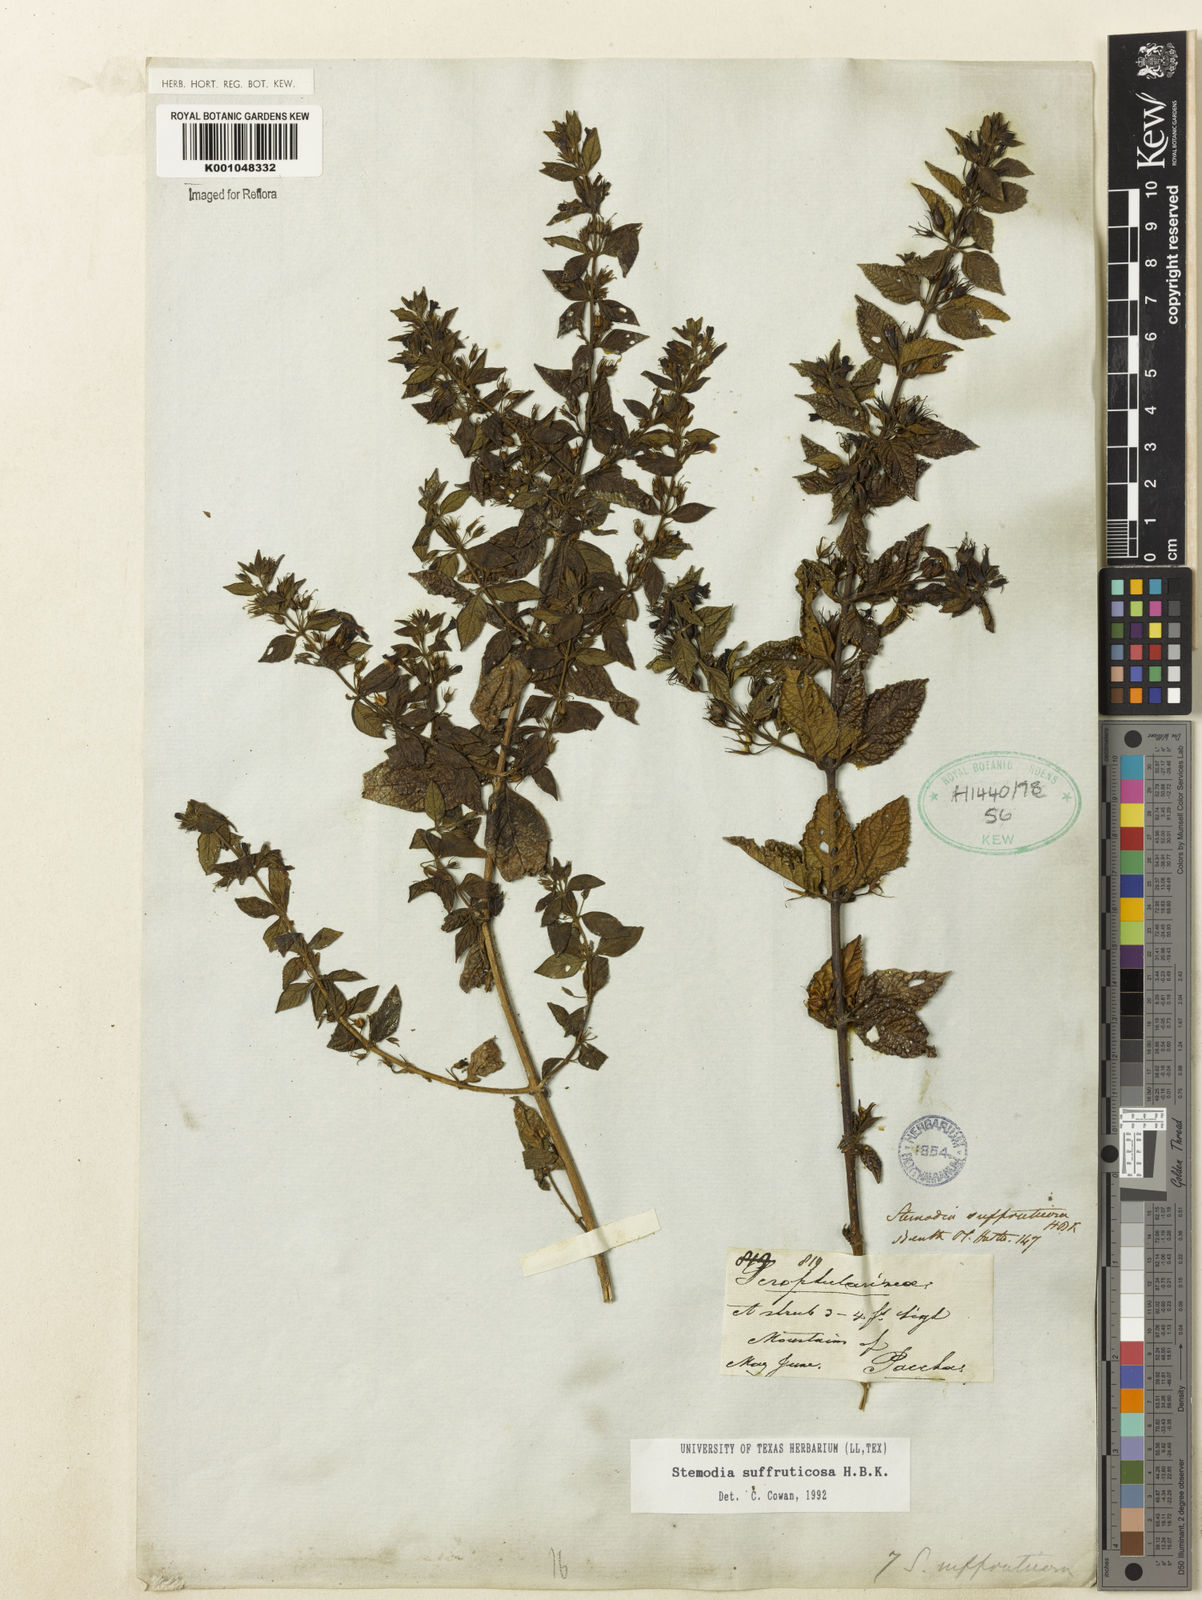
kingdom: Plantae
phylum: Tracheophyta
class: Magnoliopsida
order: Lamiales
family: Plantaginaceae
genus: Stemodia
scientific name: Stemodia
